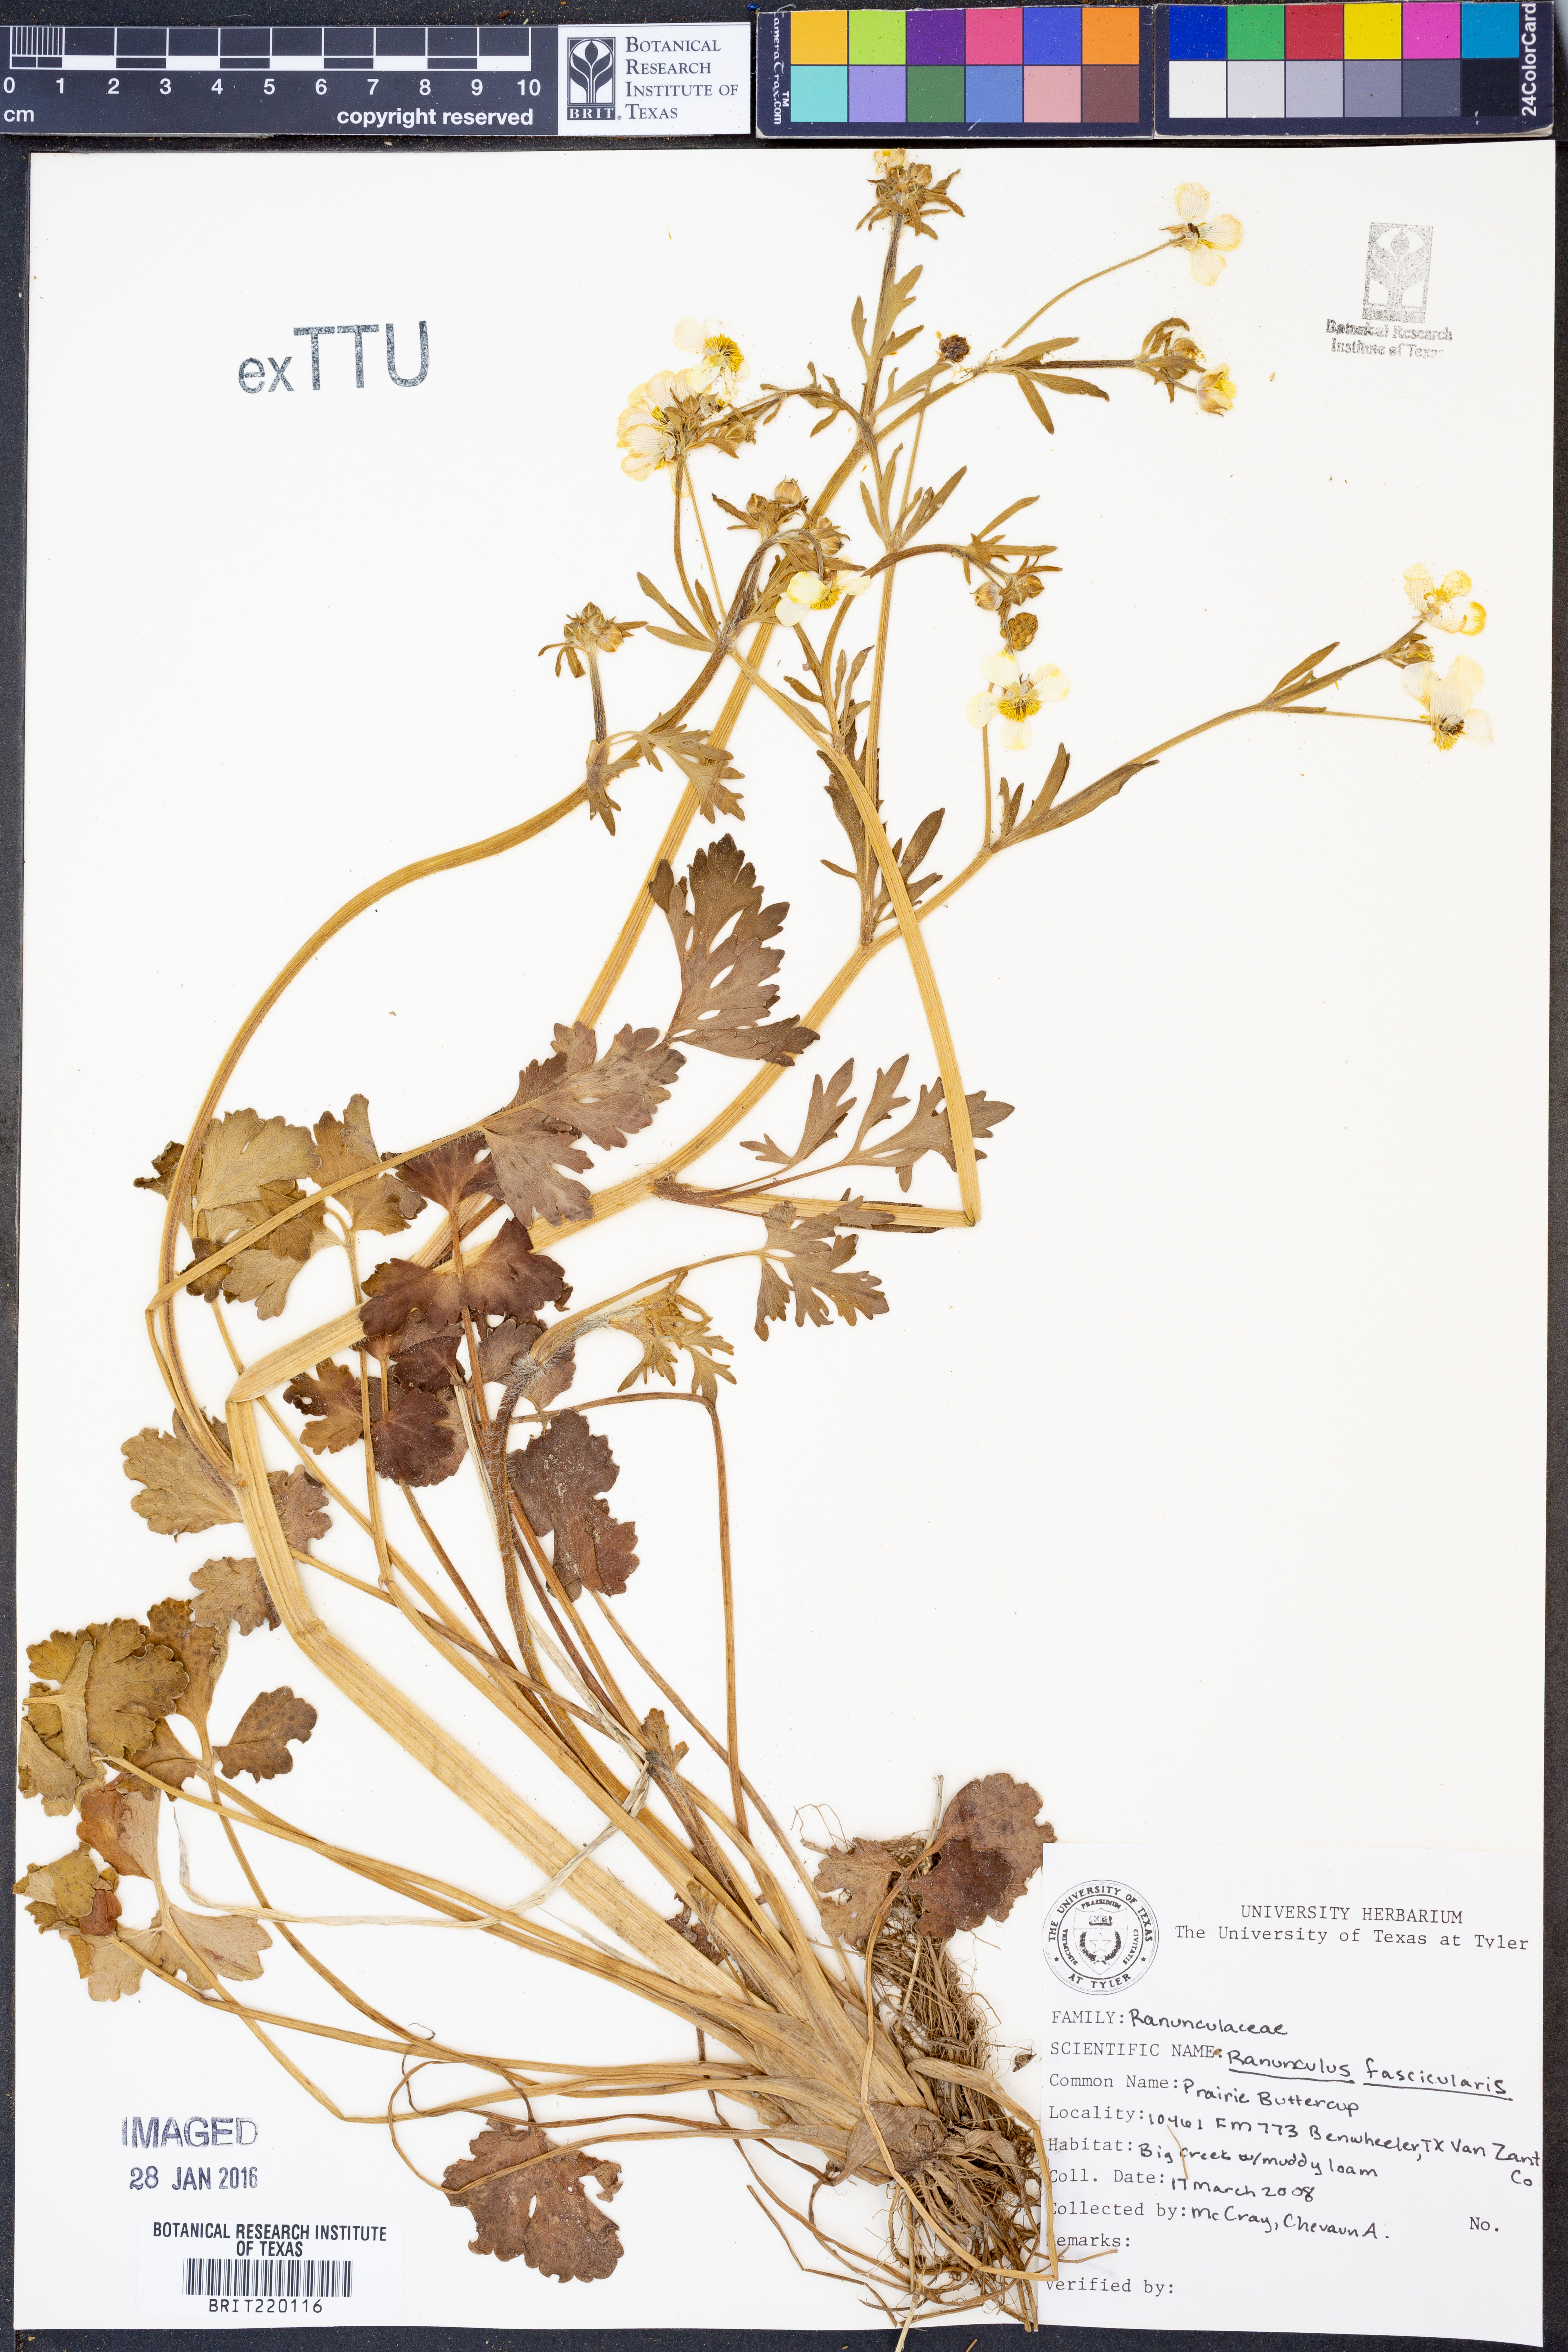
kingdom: Plantae
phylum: Tracheophyta
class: Magnoliopsida
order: Ranunculales
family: Ranunculaceae
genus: Ranunculus
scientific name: Ranunculus fascicularis
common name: Early buttercup
